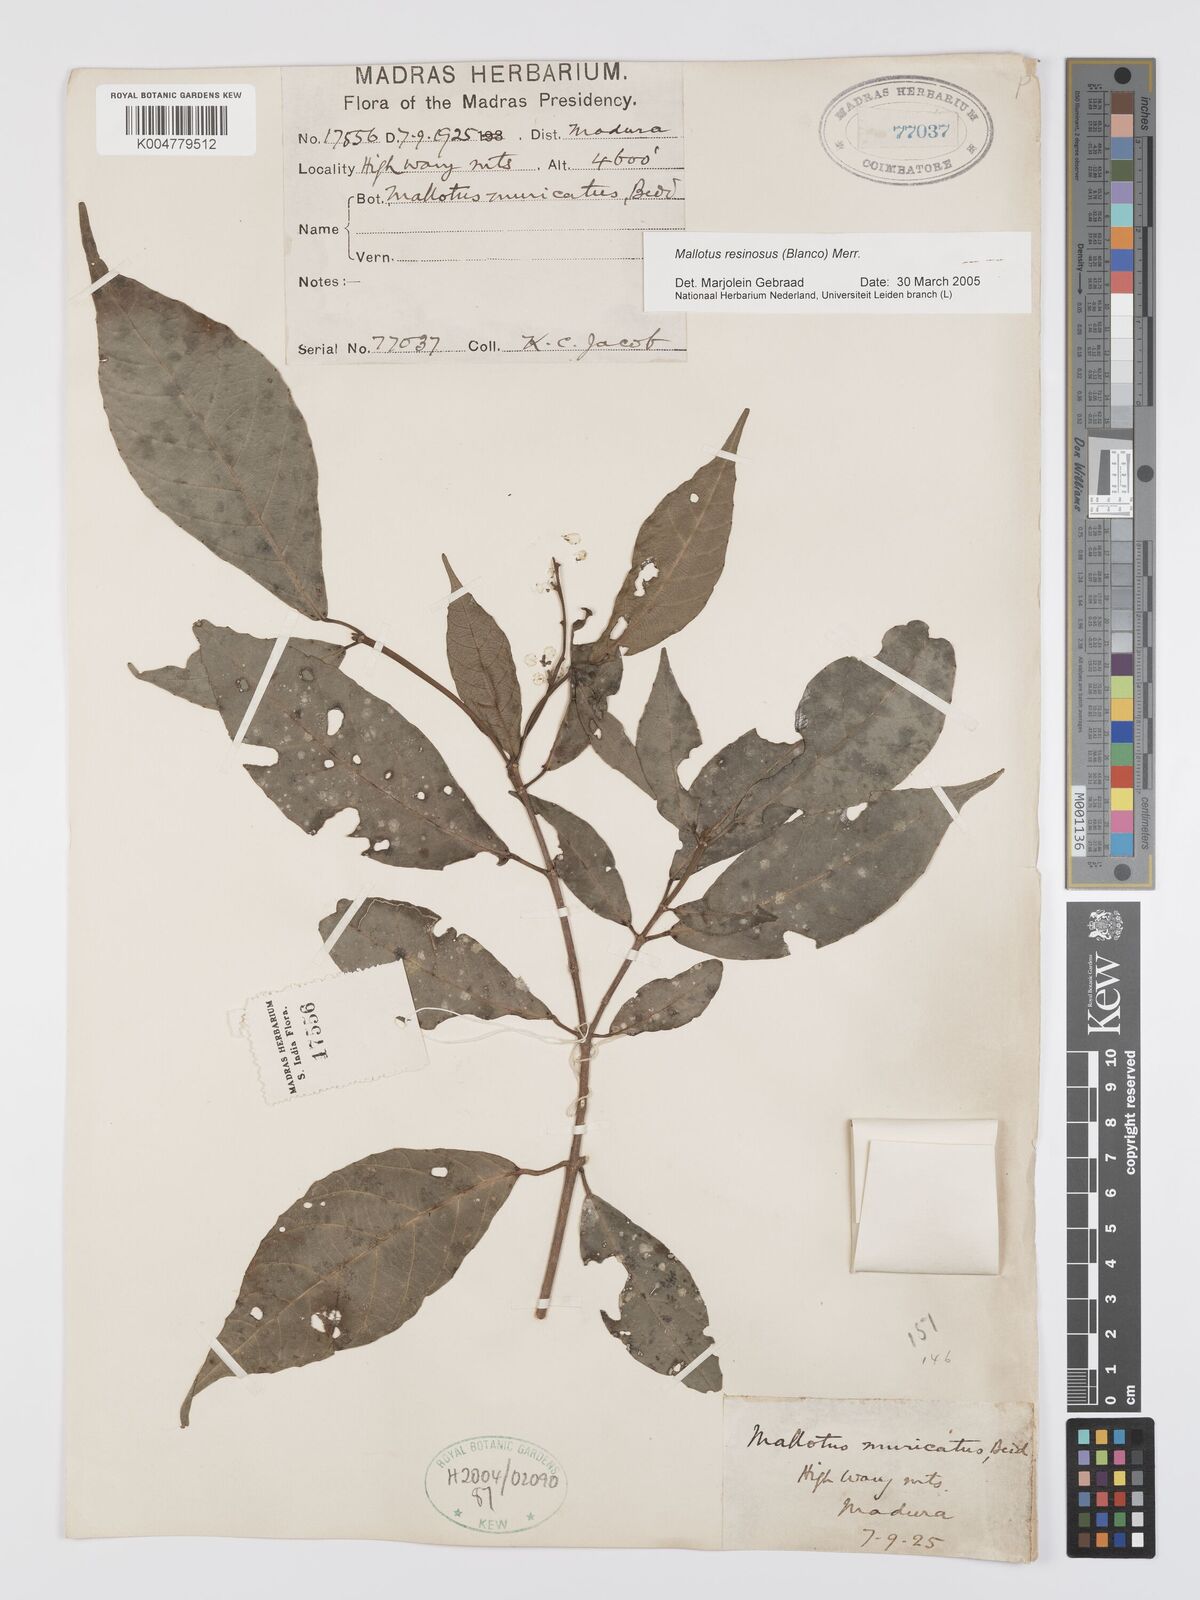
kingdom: Plantae
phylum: Tracheophyta
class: Magnoliopsida
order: Malpighiales
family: Euphorbiaceae
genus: Mallotus
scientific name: Mallotus resinosus
